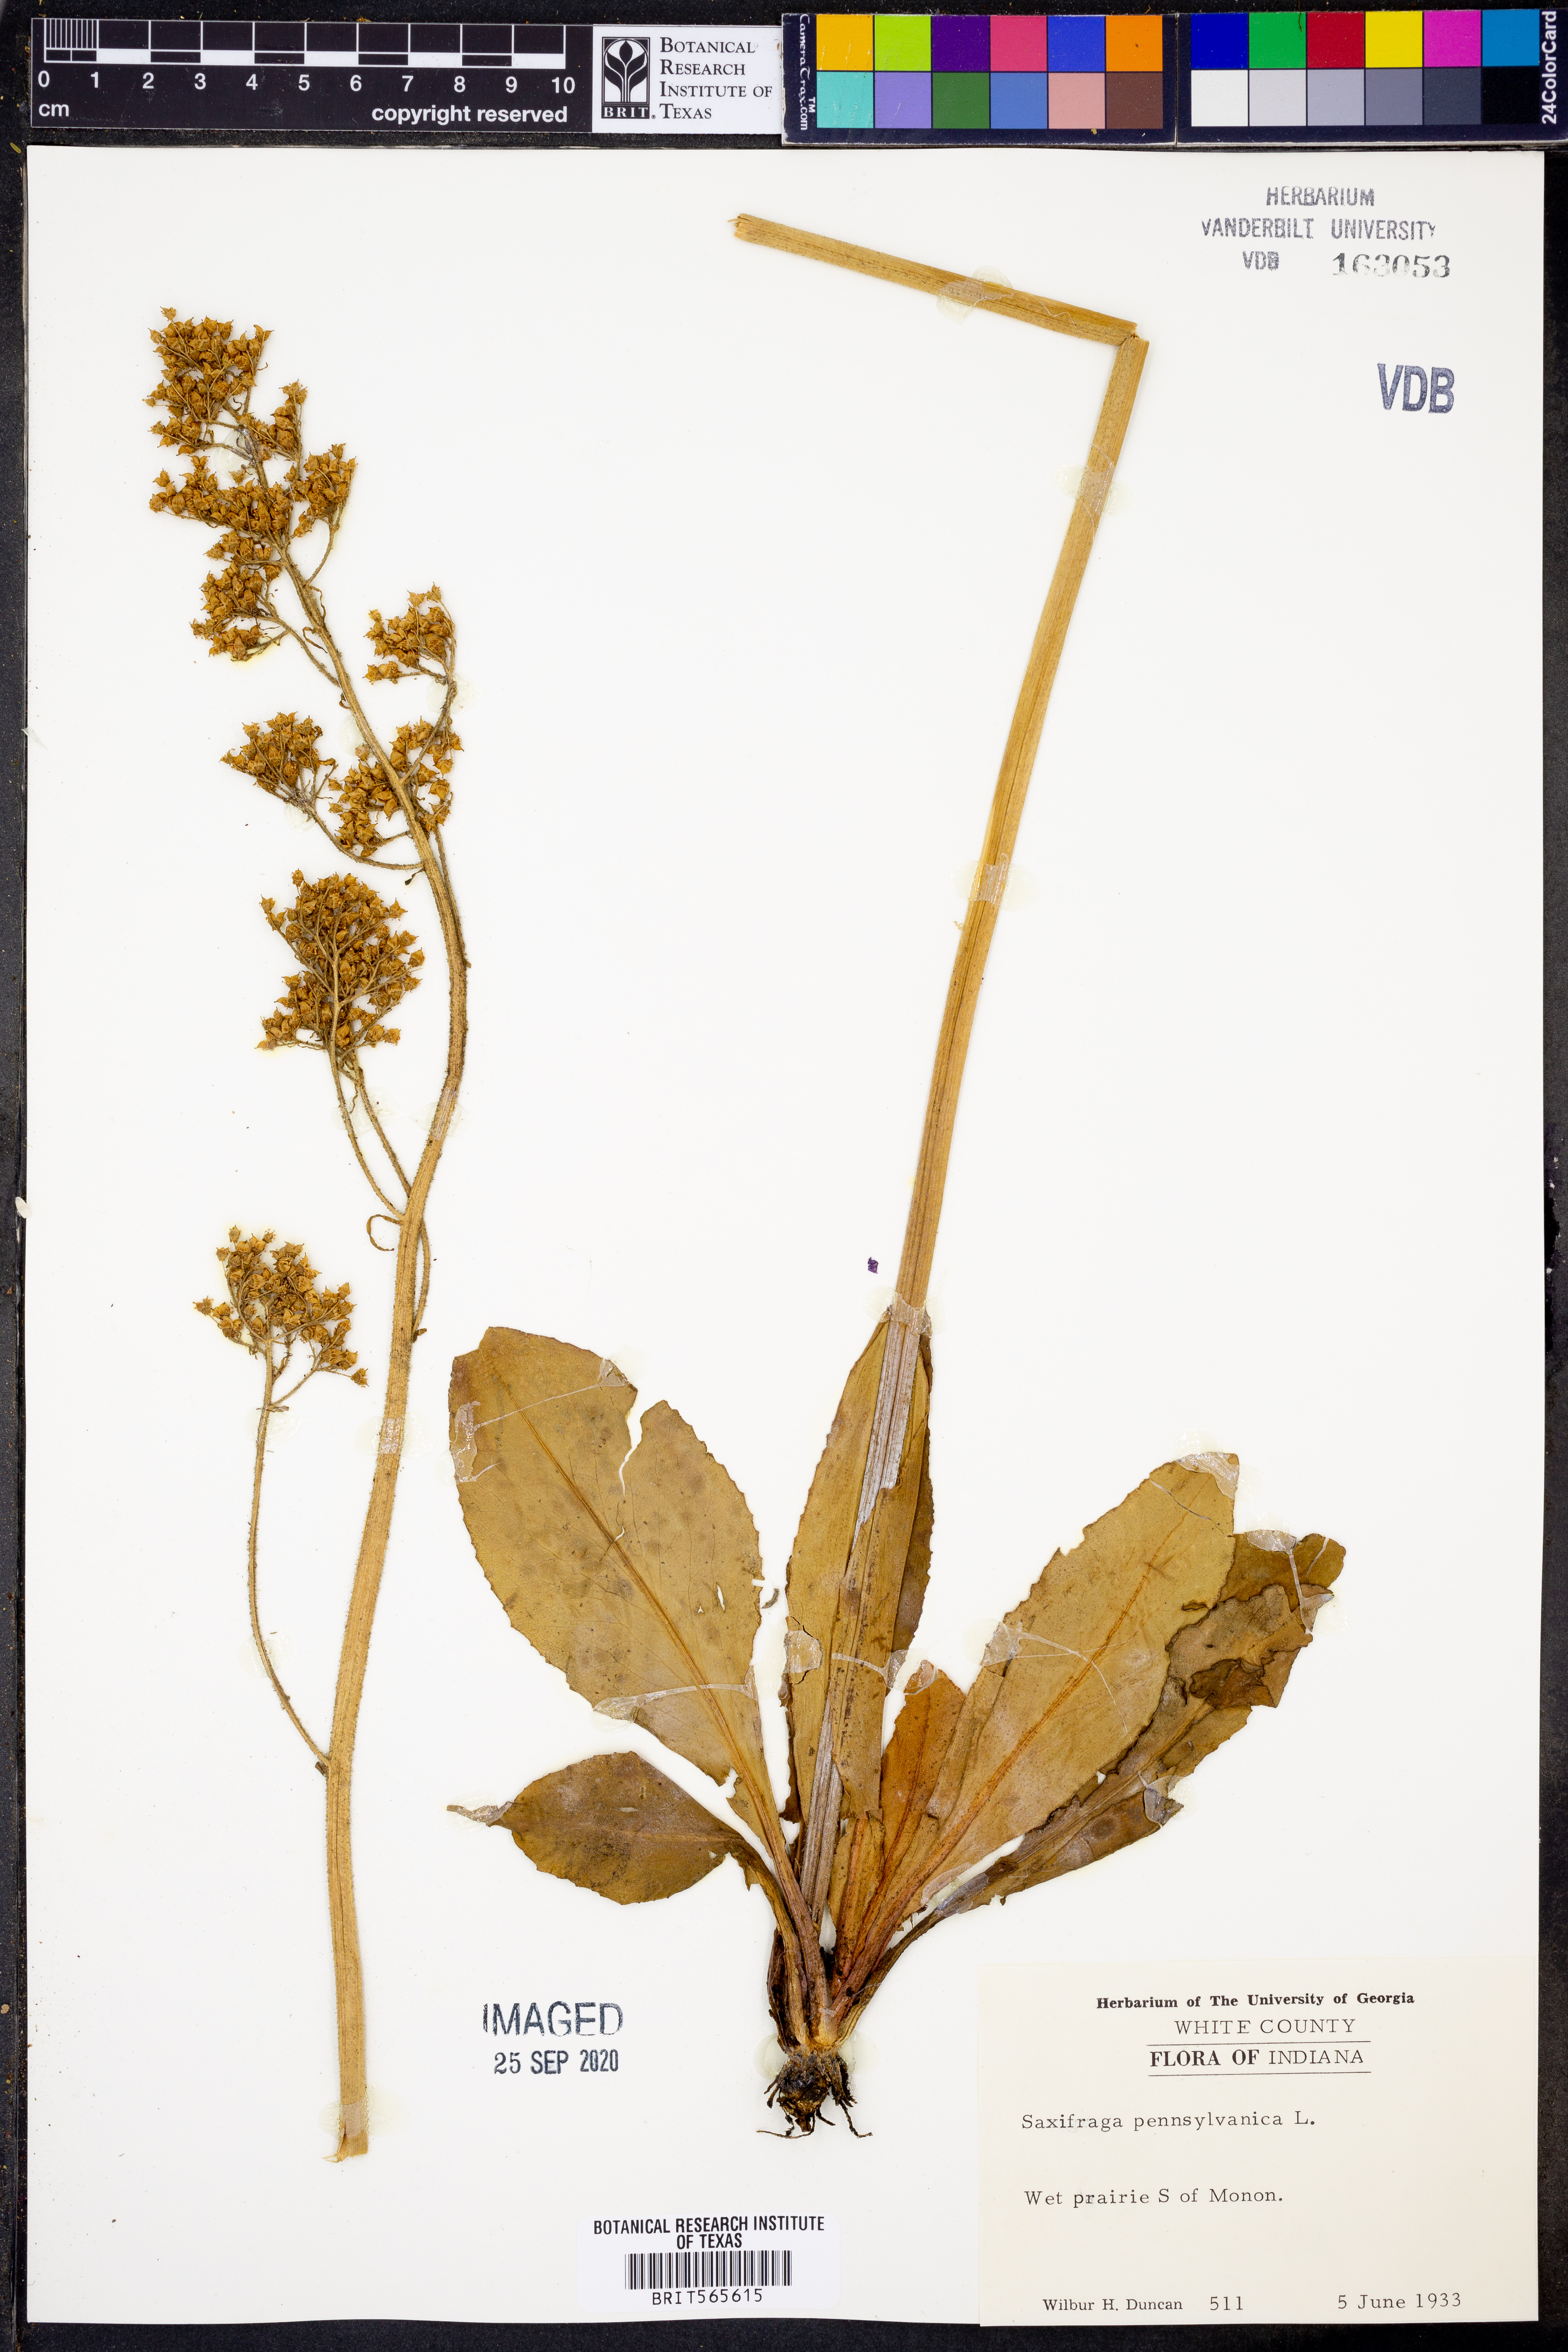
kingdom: Plantae
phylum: Tracheophyta
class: Magnoliopsida
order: Saxifragales
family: Saxifragaceae
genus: Micranthes
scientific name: Micranthes pensylvanica
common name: Marsh saxifrage
